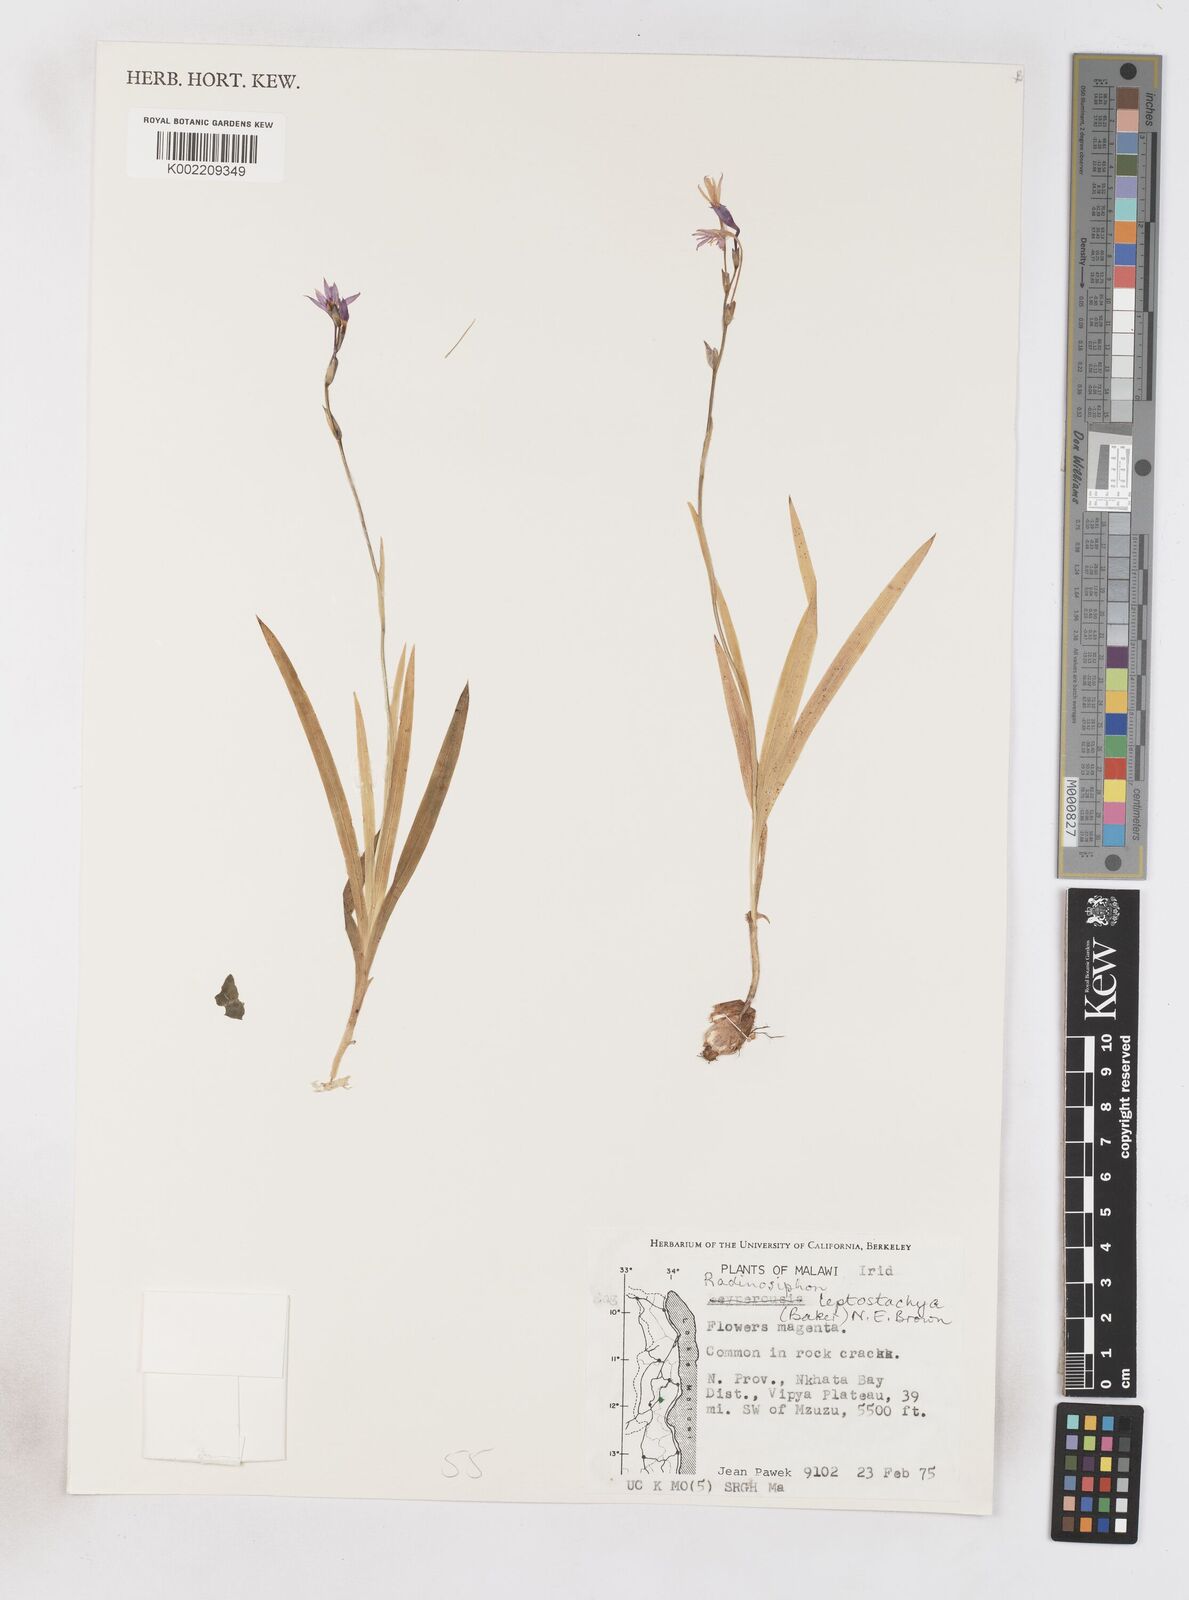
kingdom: Plantae
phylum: Tracheophyta
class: Liliopsida
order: Asparagales
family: Iridaceae
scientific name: Iridaceae
